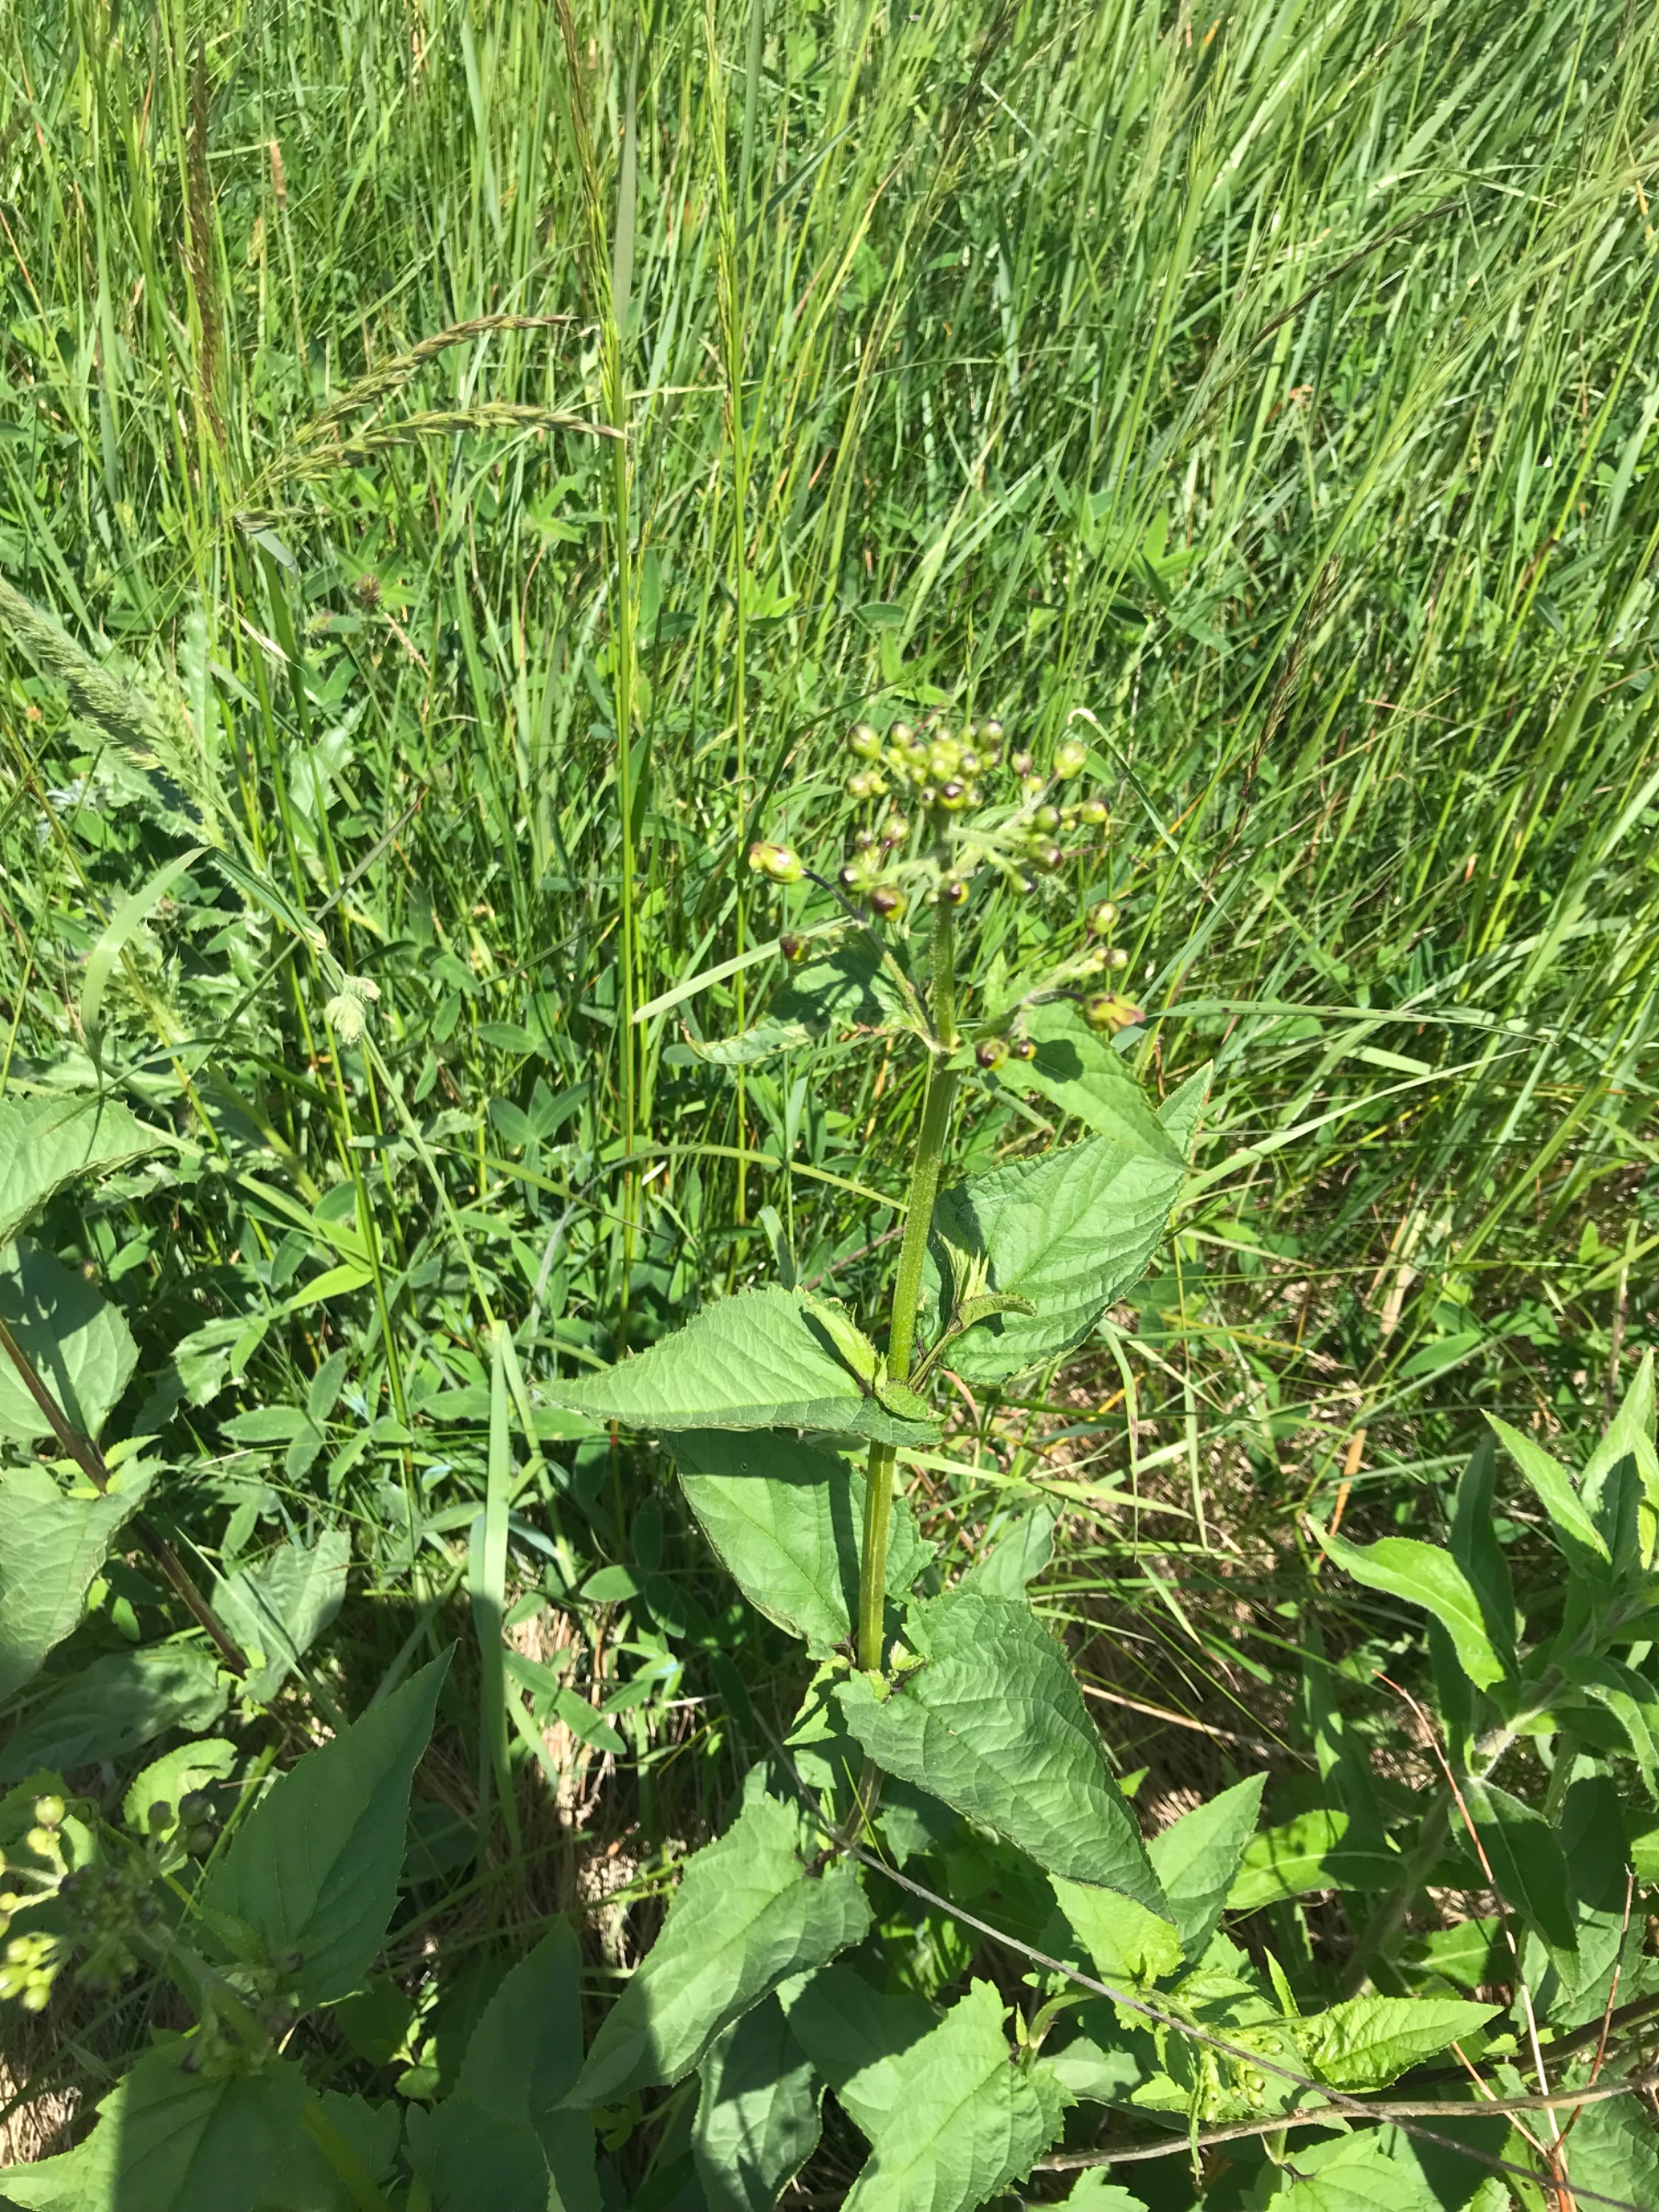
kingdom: Plantae
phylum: Tracheophyta
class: Magnoliopsida
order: Lamiales
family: Scrophulariaceae
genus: Scrophularia
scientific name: Scrophularia nodosa
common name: Knoldet brunrod
